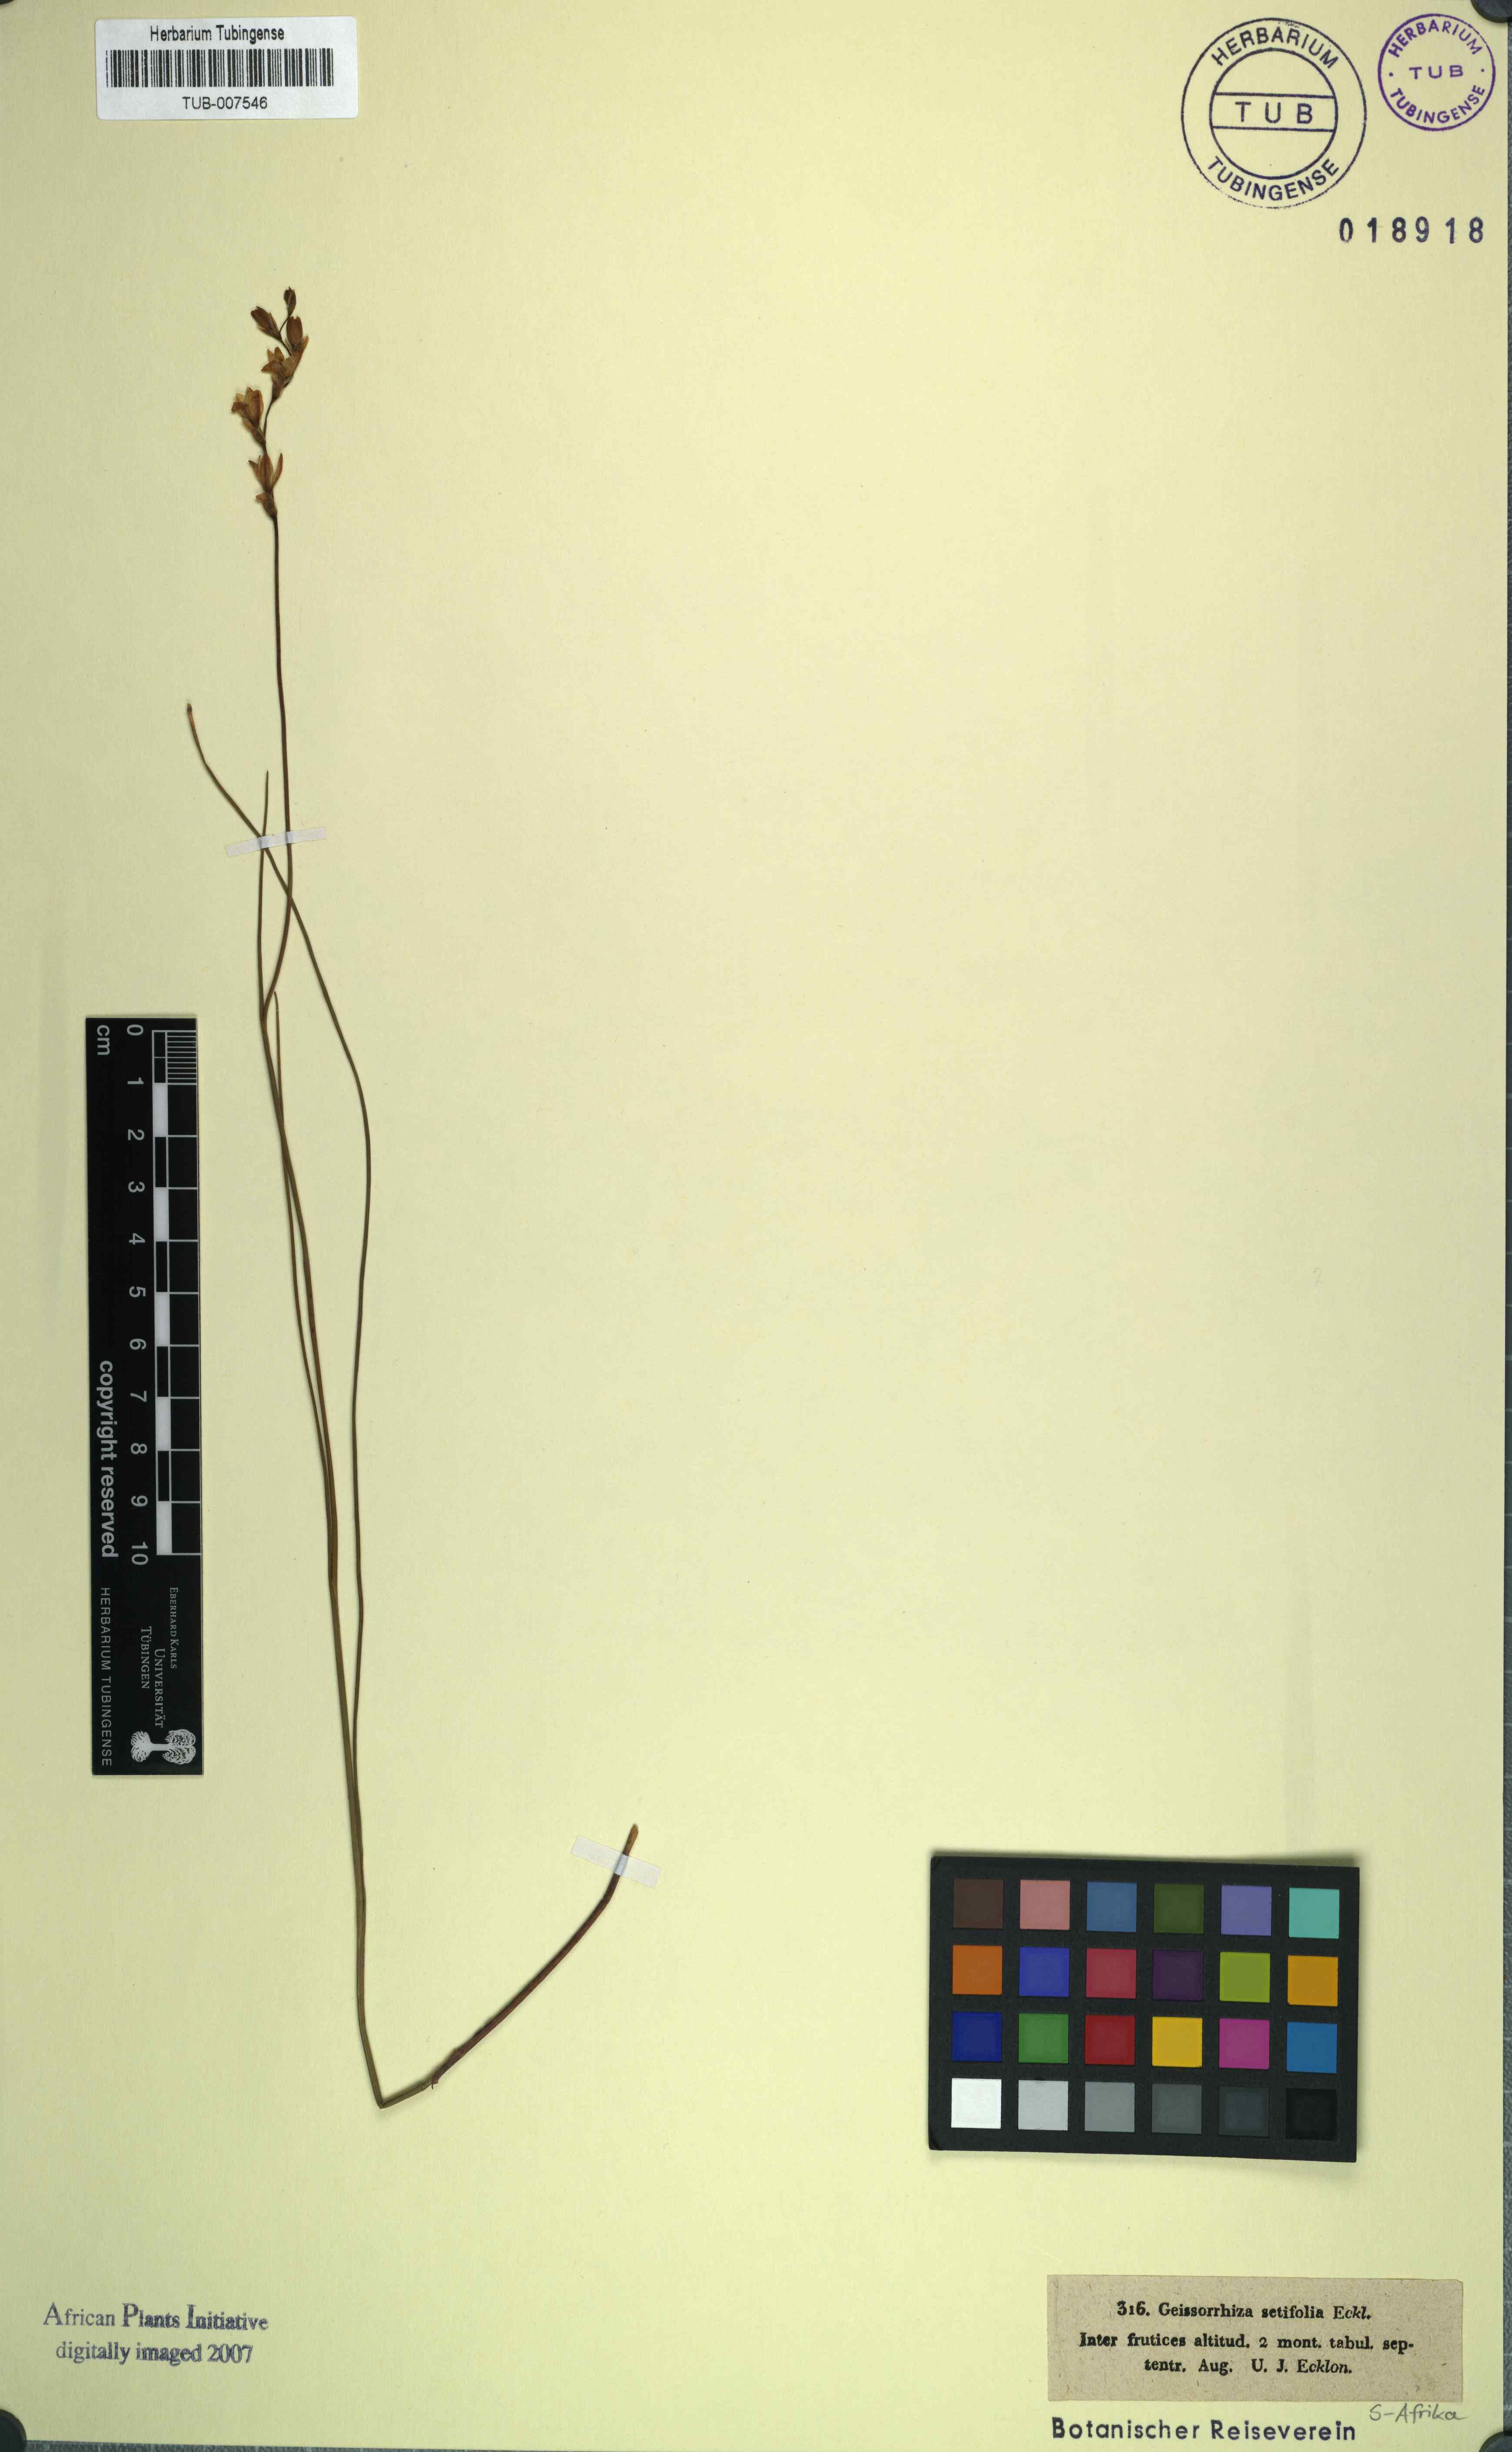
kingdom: Plantae
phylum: Tracheophyta
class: Liliopsida
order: Asparagales
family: Iridaceae
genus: Geissorhiza
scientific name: Geissorhiza aspera
